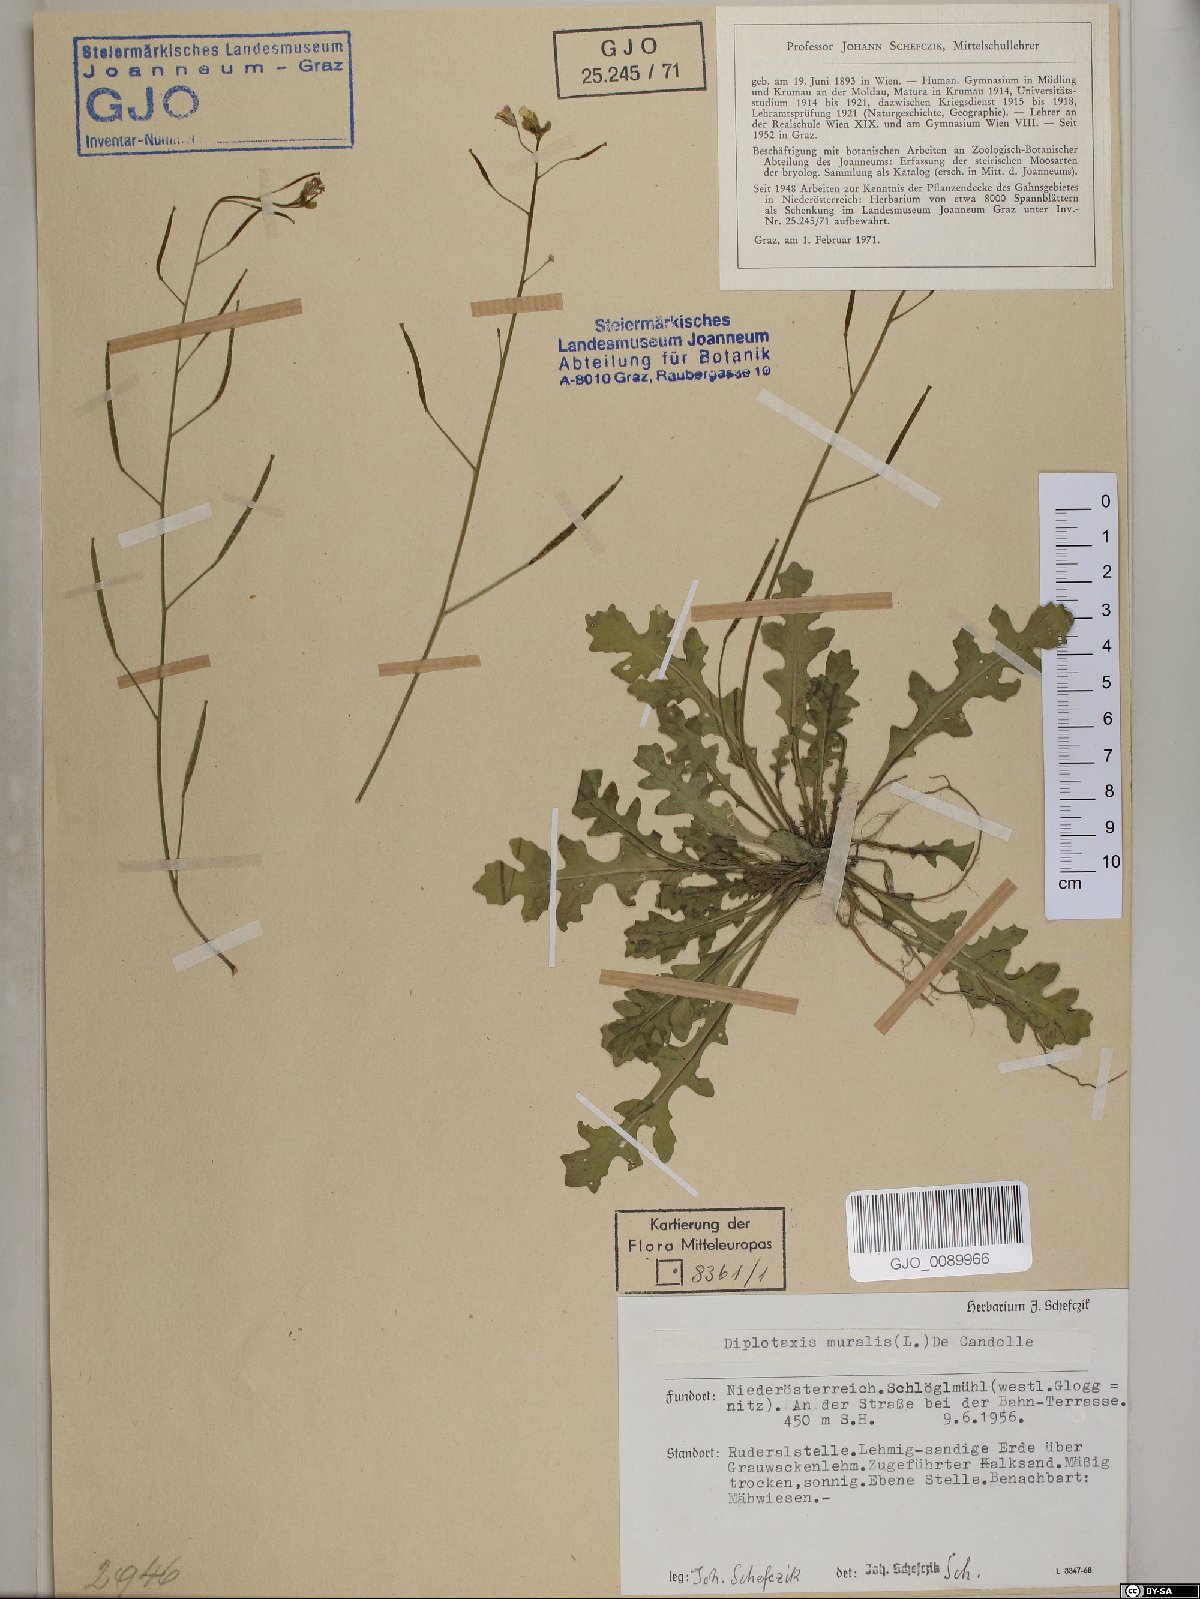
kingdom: Plantae
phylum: Tracheophyta
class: Magnoliopsida
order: Brassicales
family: Brassicaceae
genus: Diplotaxis
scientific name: Diplotaxis muralis
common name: Annual wall-rocket
